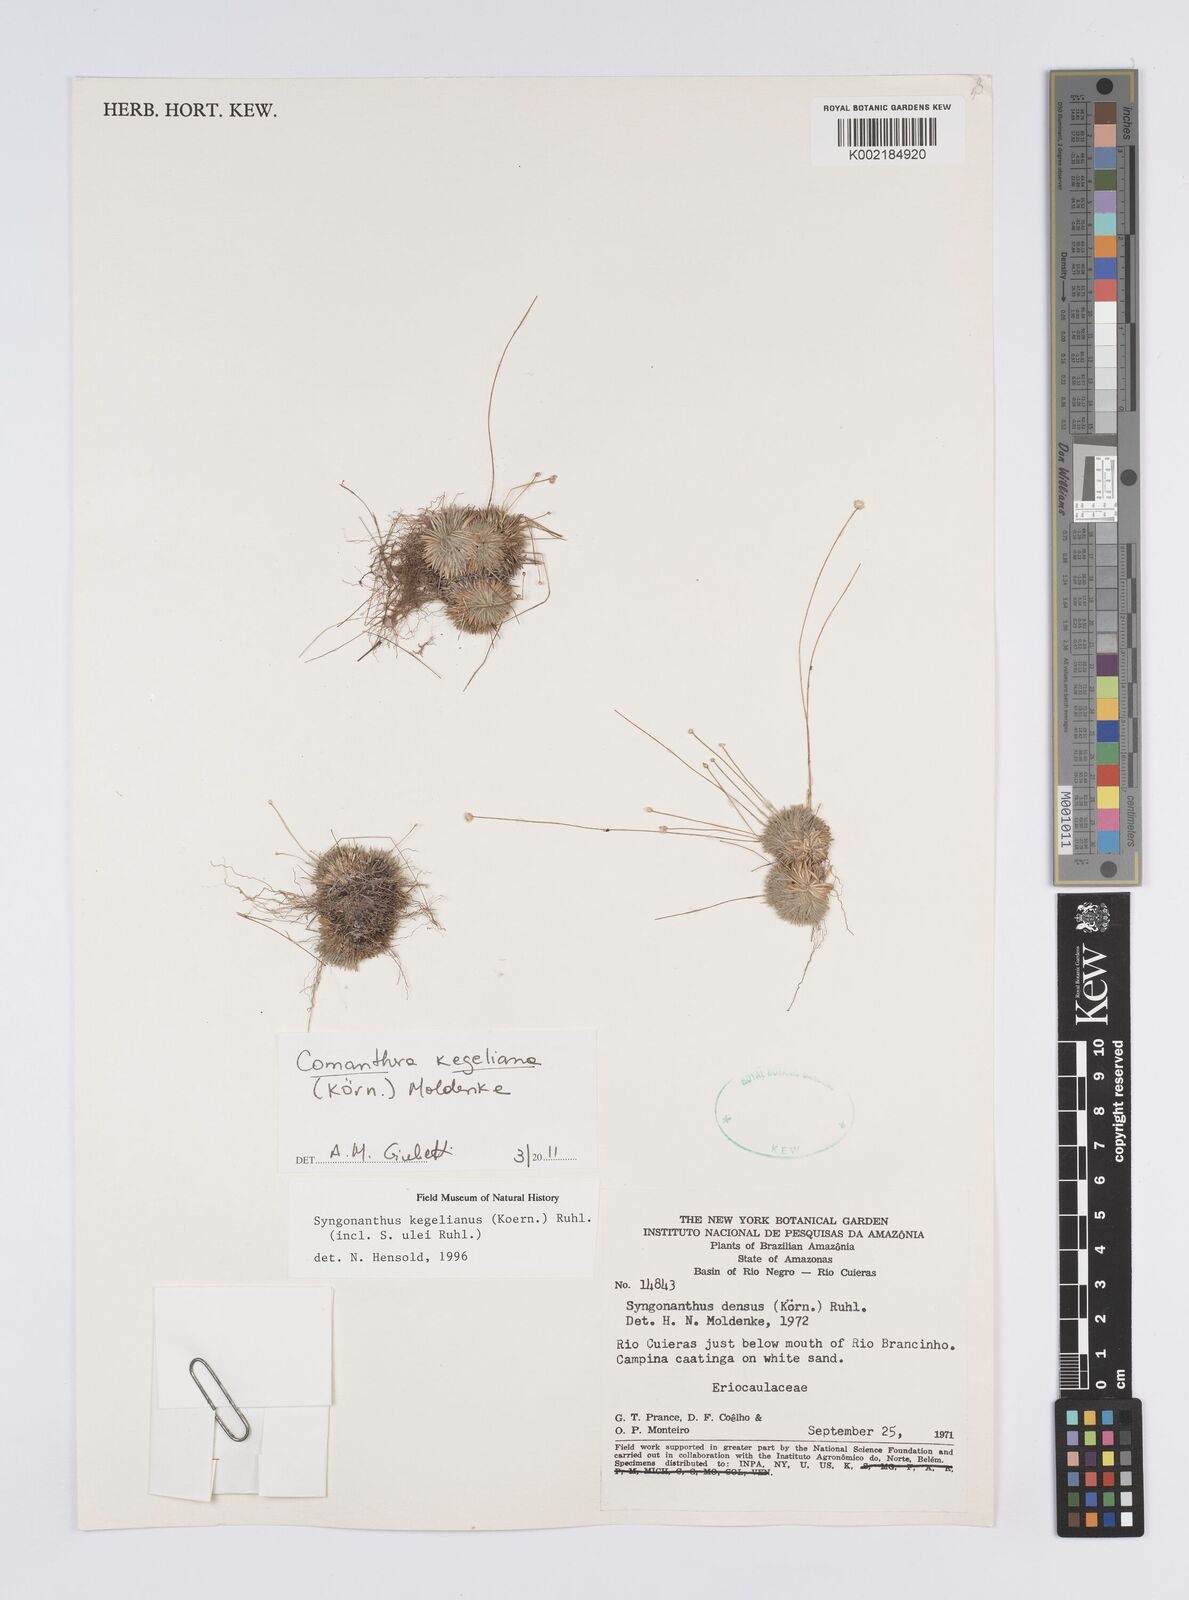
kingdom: Plantae
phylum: Tracheophyta
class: Liliopsida
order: Poales
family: Eriocaulaceae
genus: Comanthera
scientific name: Comanthera kegeliana
